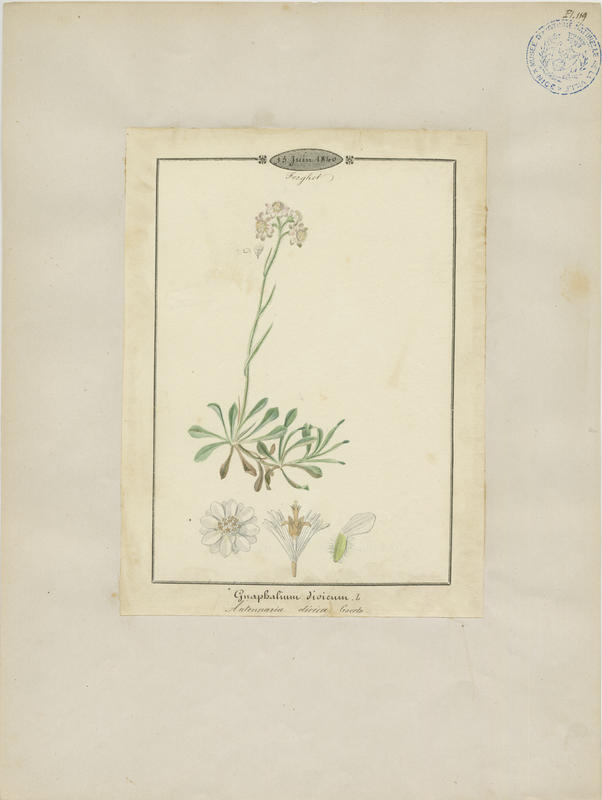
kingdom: Plantae
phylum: Tracheophyta
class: Magnoliopsida
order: Asterales
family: Asteraceae
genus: Antennaria
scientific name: Antennaria dioica
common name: Mountain everlasting
